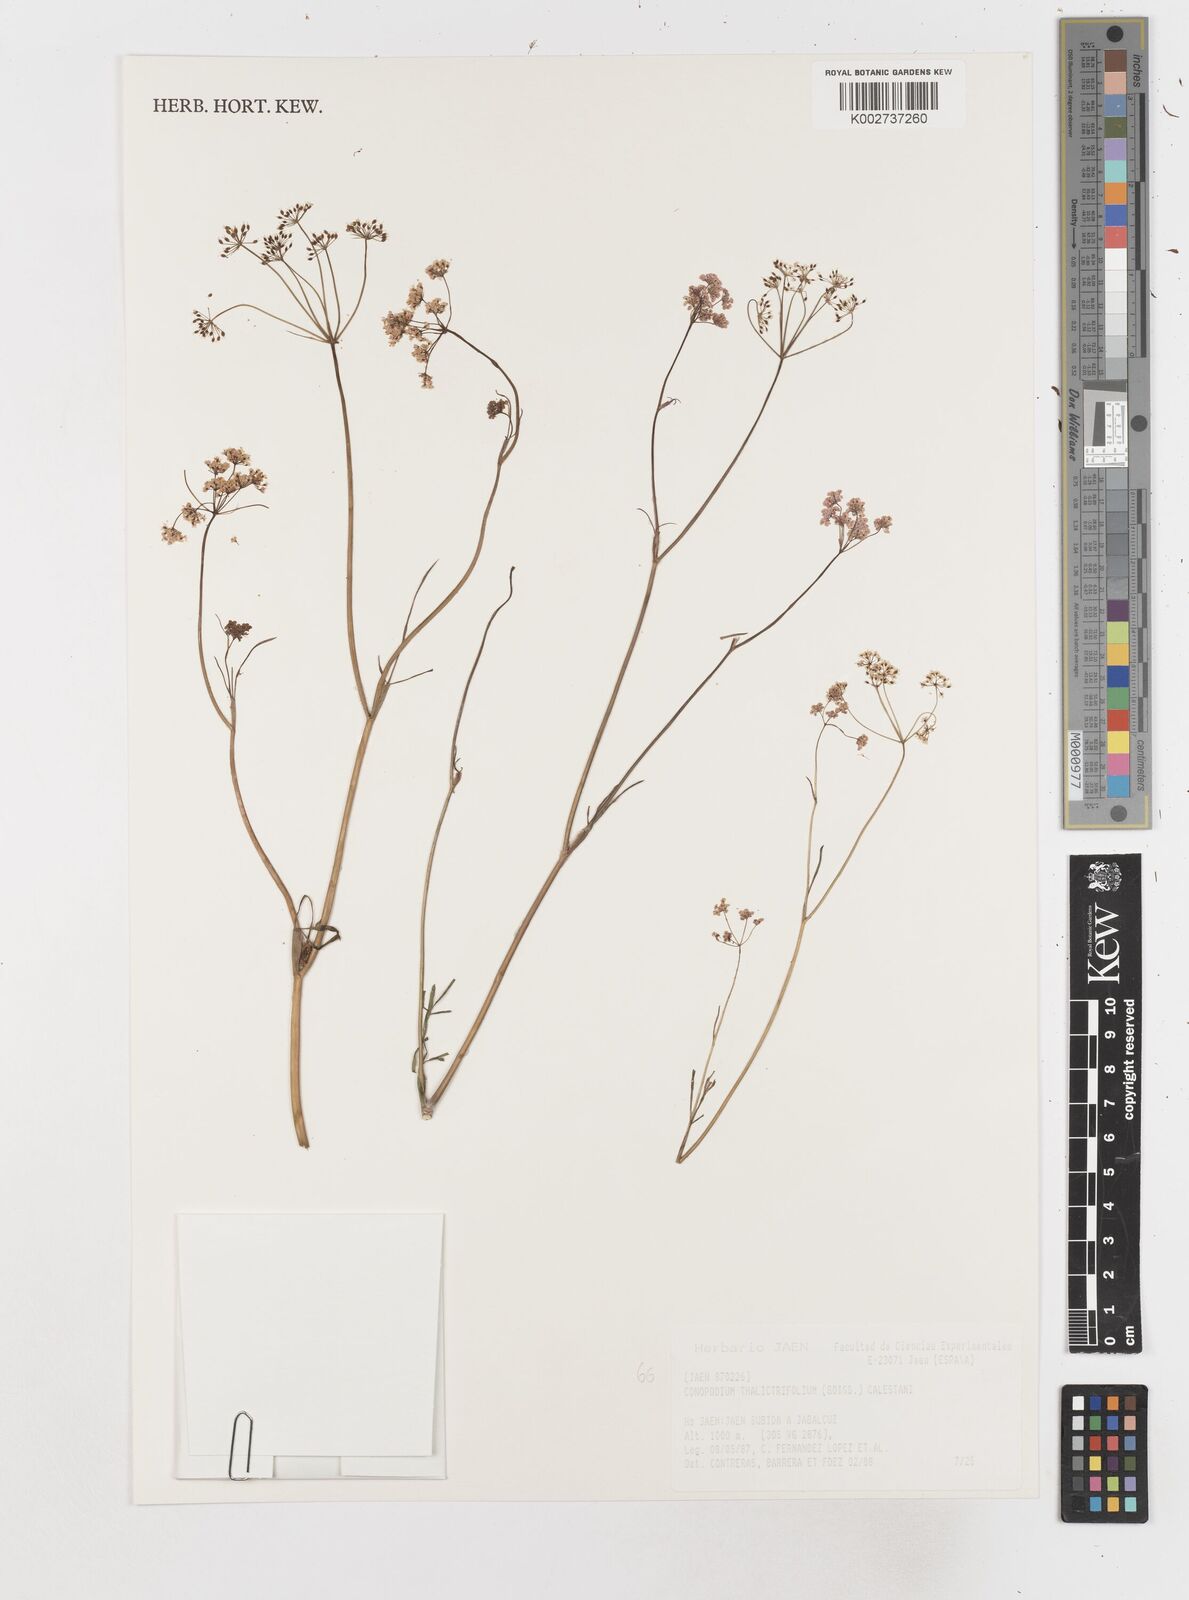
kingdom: Plantae
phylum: Tracheophyta
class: Magnoliopsida
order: Apiales
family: Apiaceae
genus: Conopodium
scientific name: Conopodium thalictrifolium
